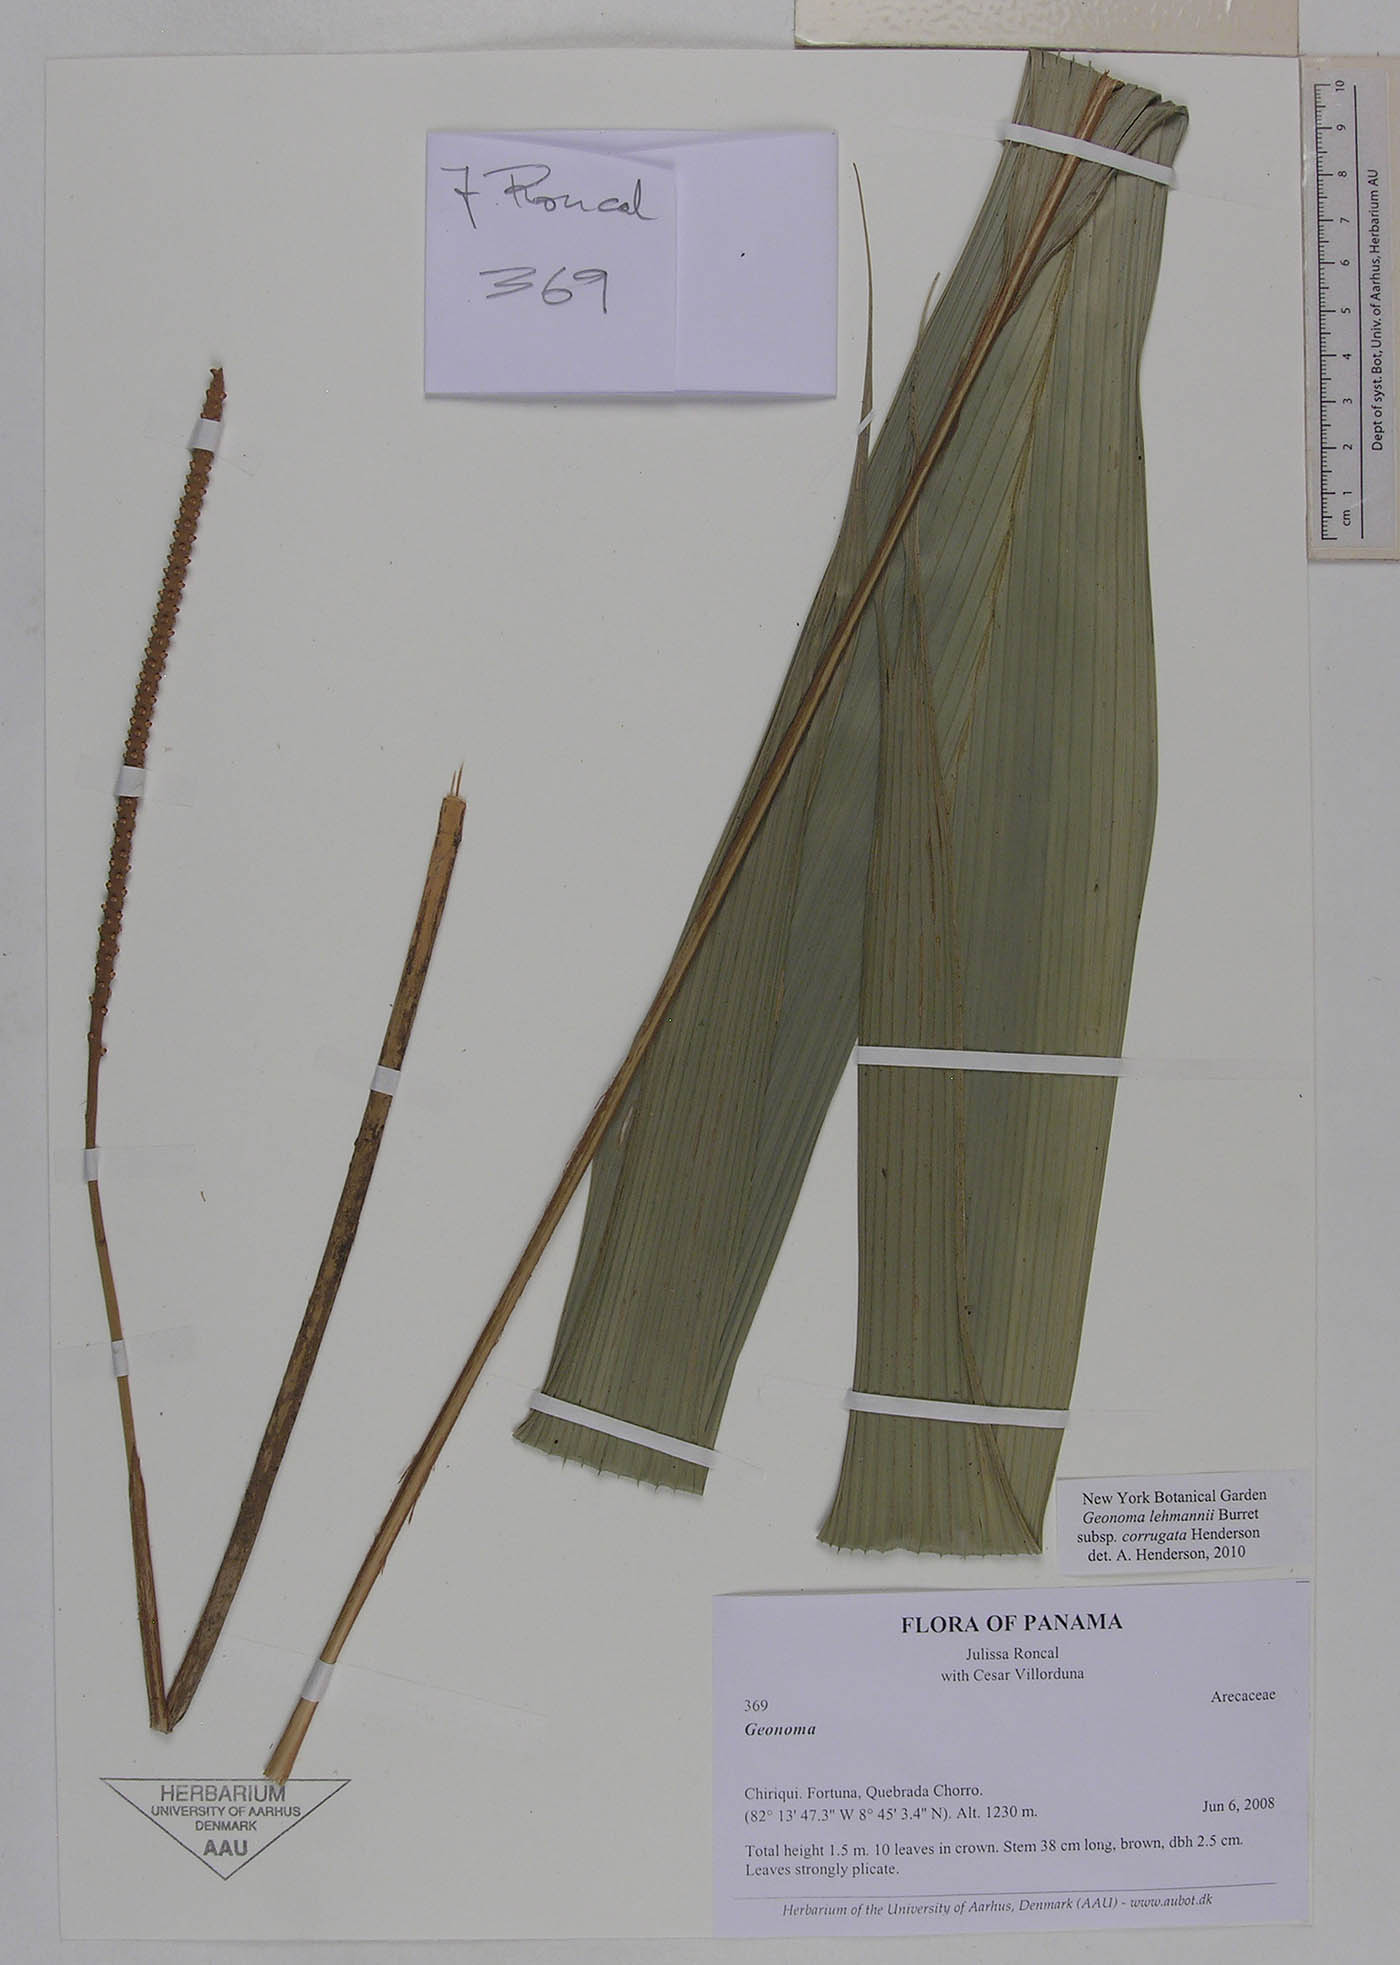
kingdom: Plantae
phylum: Tracheophyta
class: Liliopsida
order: Arecales
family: Arecaceae
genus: Geonoma
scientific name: Geonoma lehmannii
